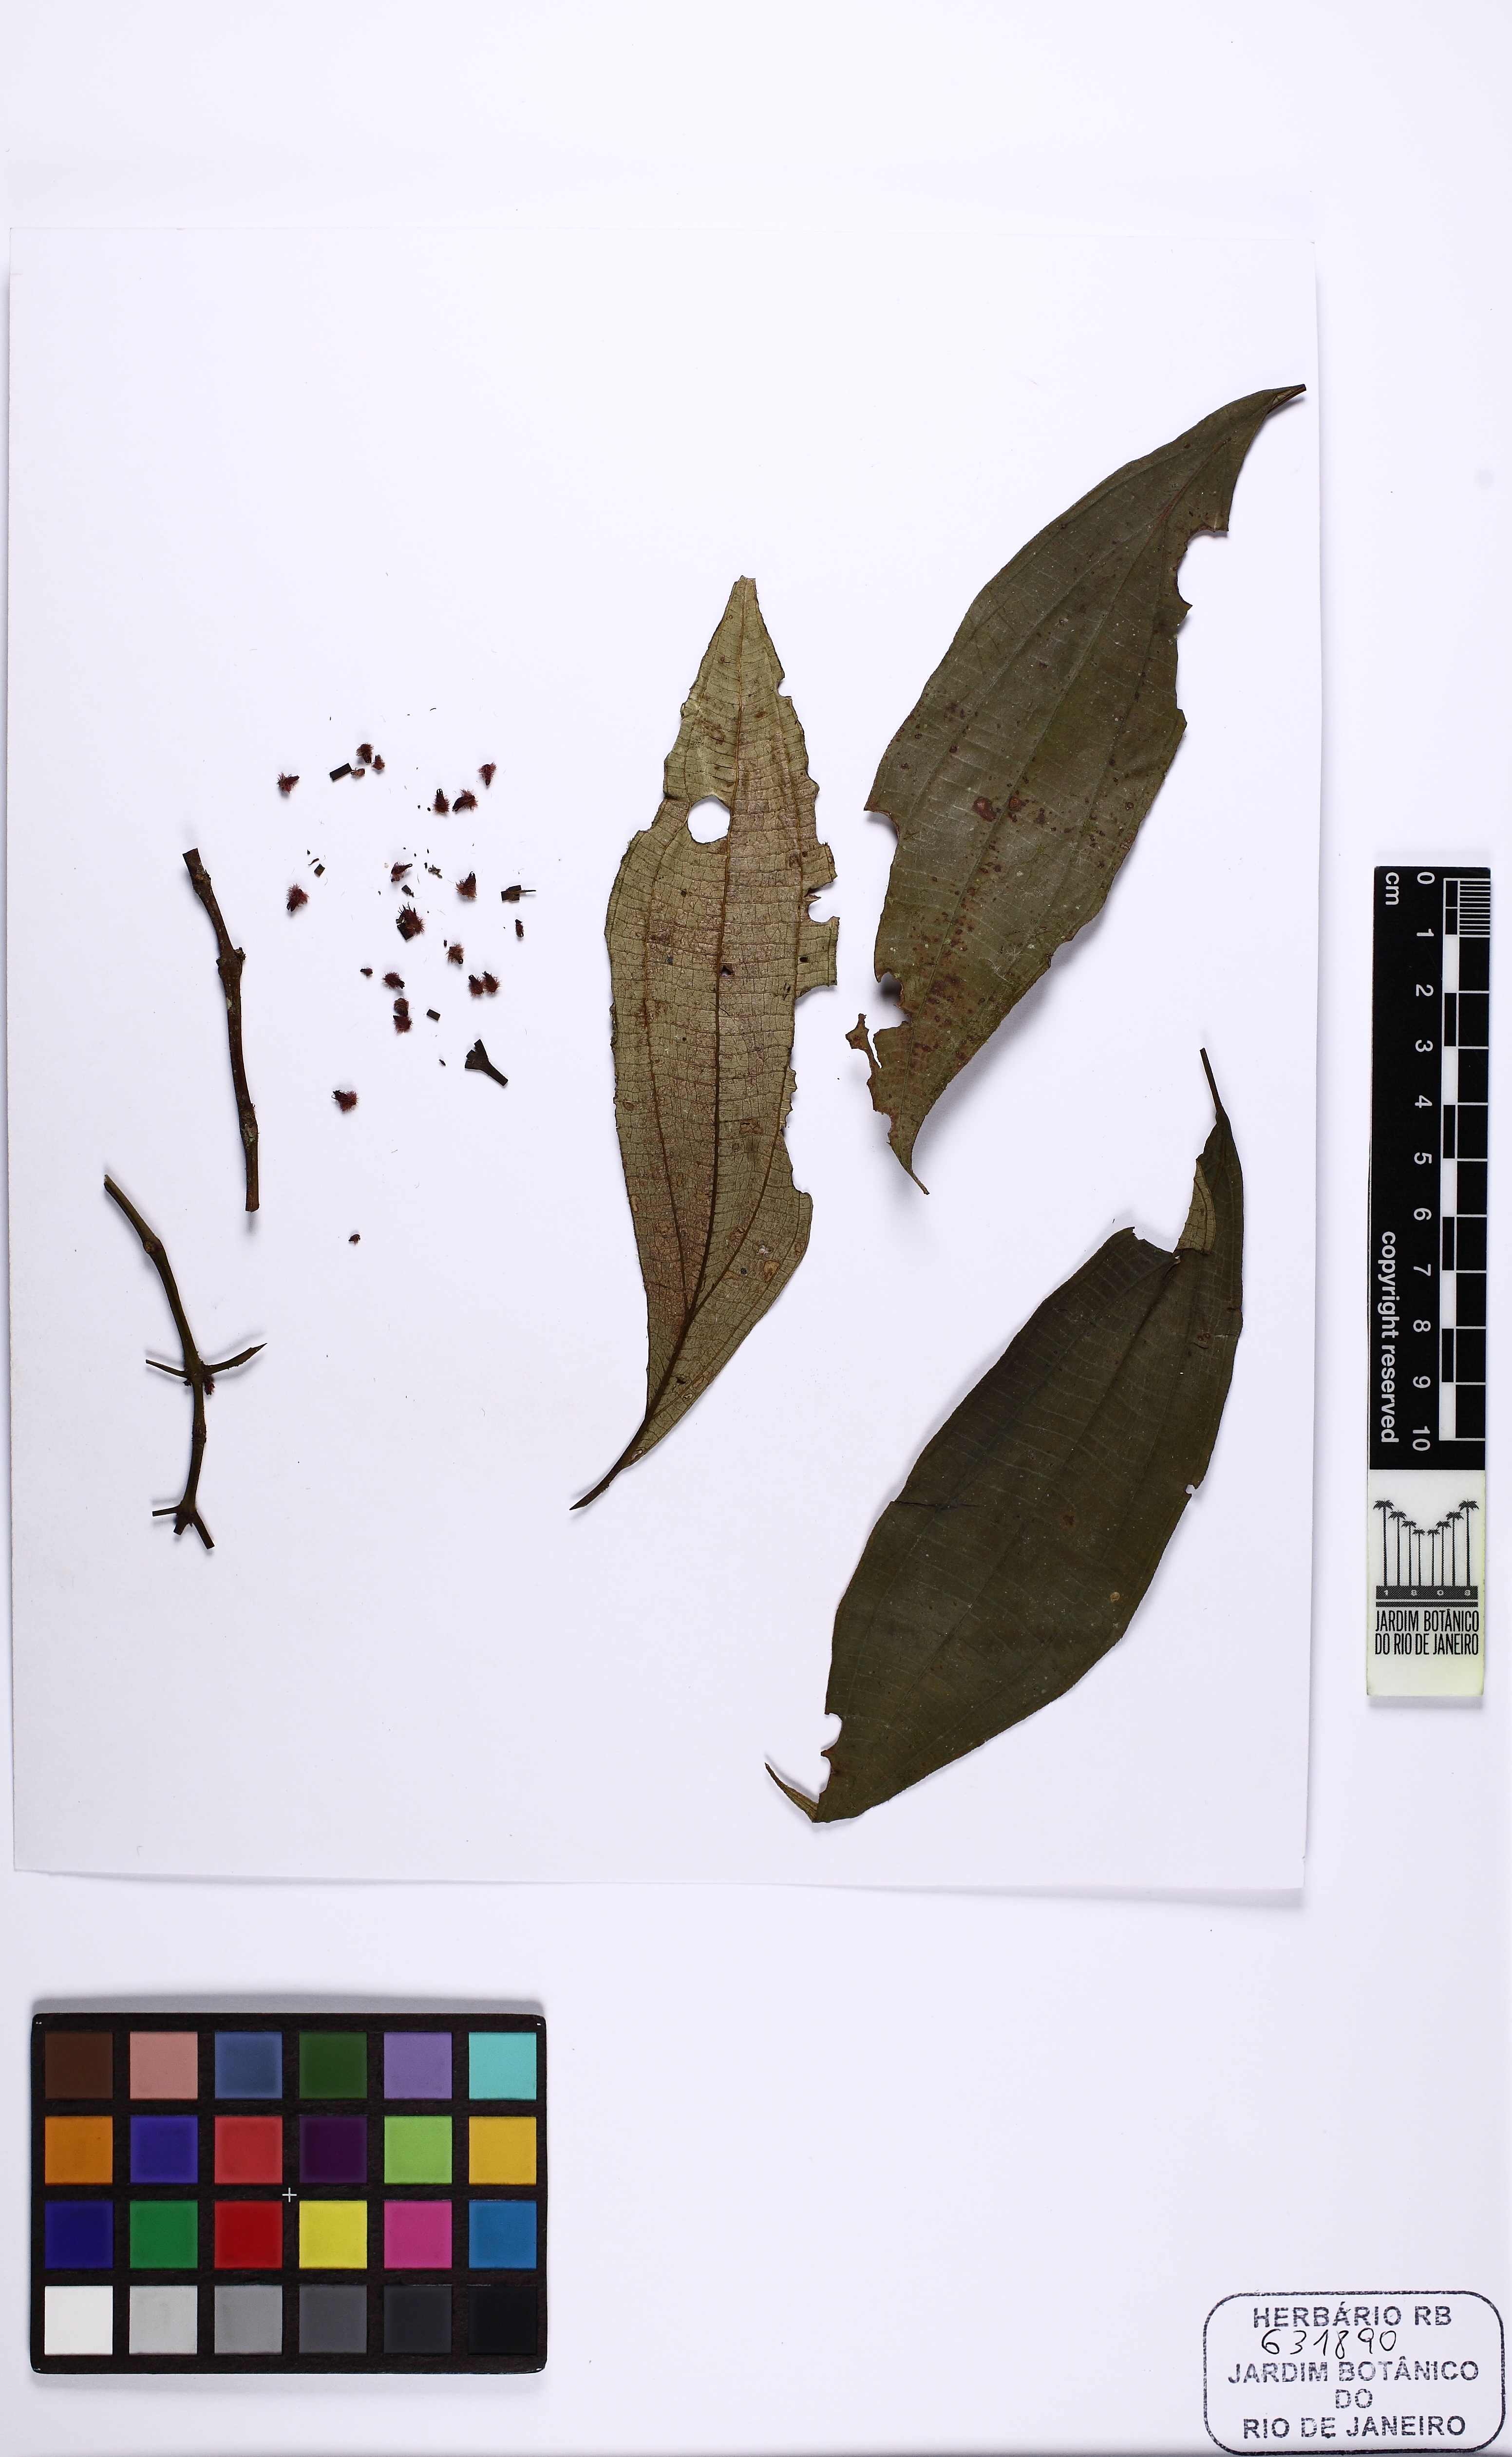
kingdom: Plantae
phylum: Tracheophyta
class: Magnoliopsida
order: Myrtales
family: Melastomataceae
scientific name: Melastomataceae
